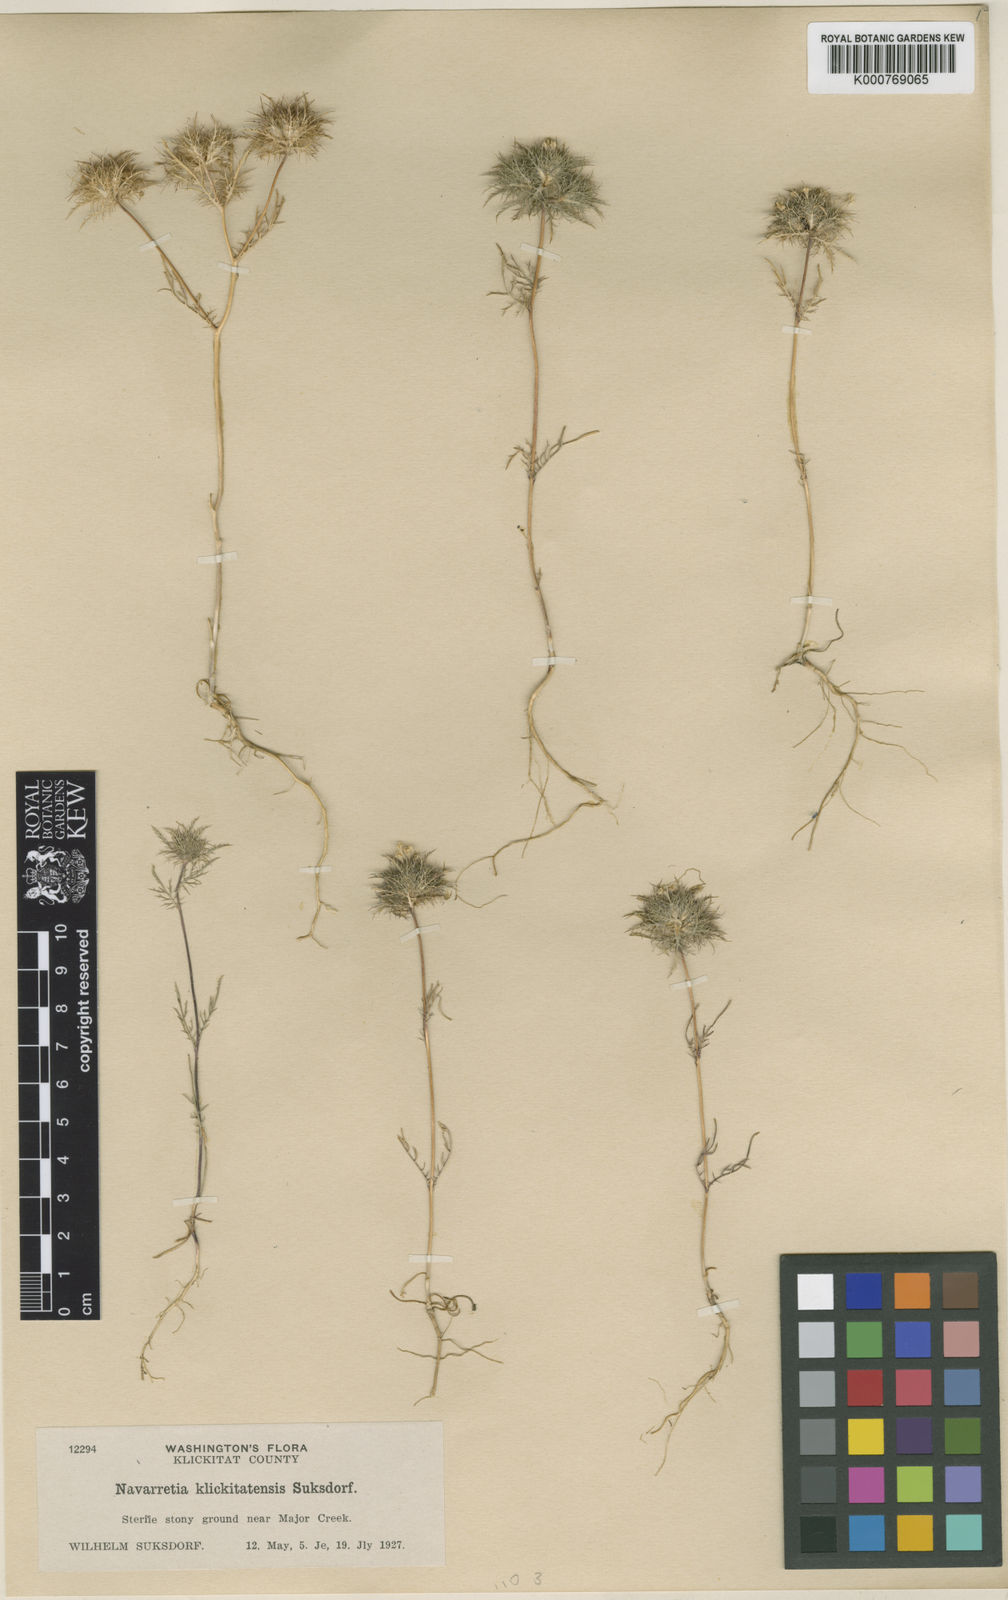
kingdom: Plantae
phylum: Tracheophyta
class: Magnoliopsida
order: Ericales
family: Polemoniaceae
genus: Navarretia
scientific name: Navarretia tagetina
